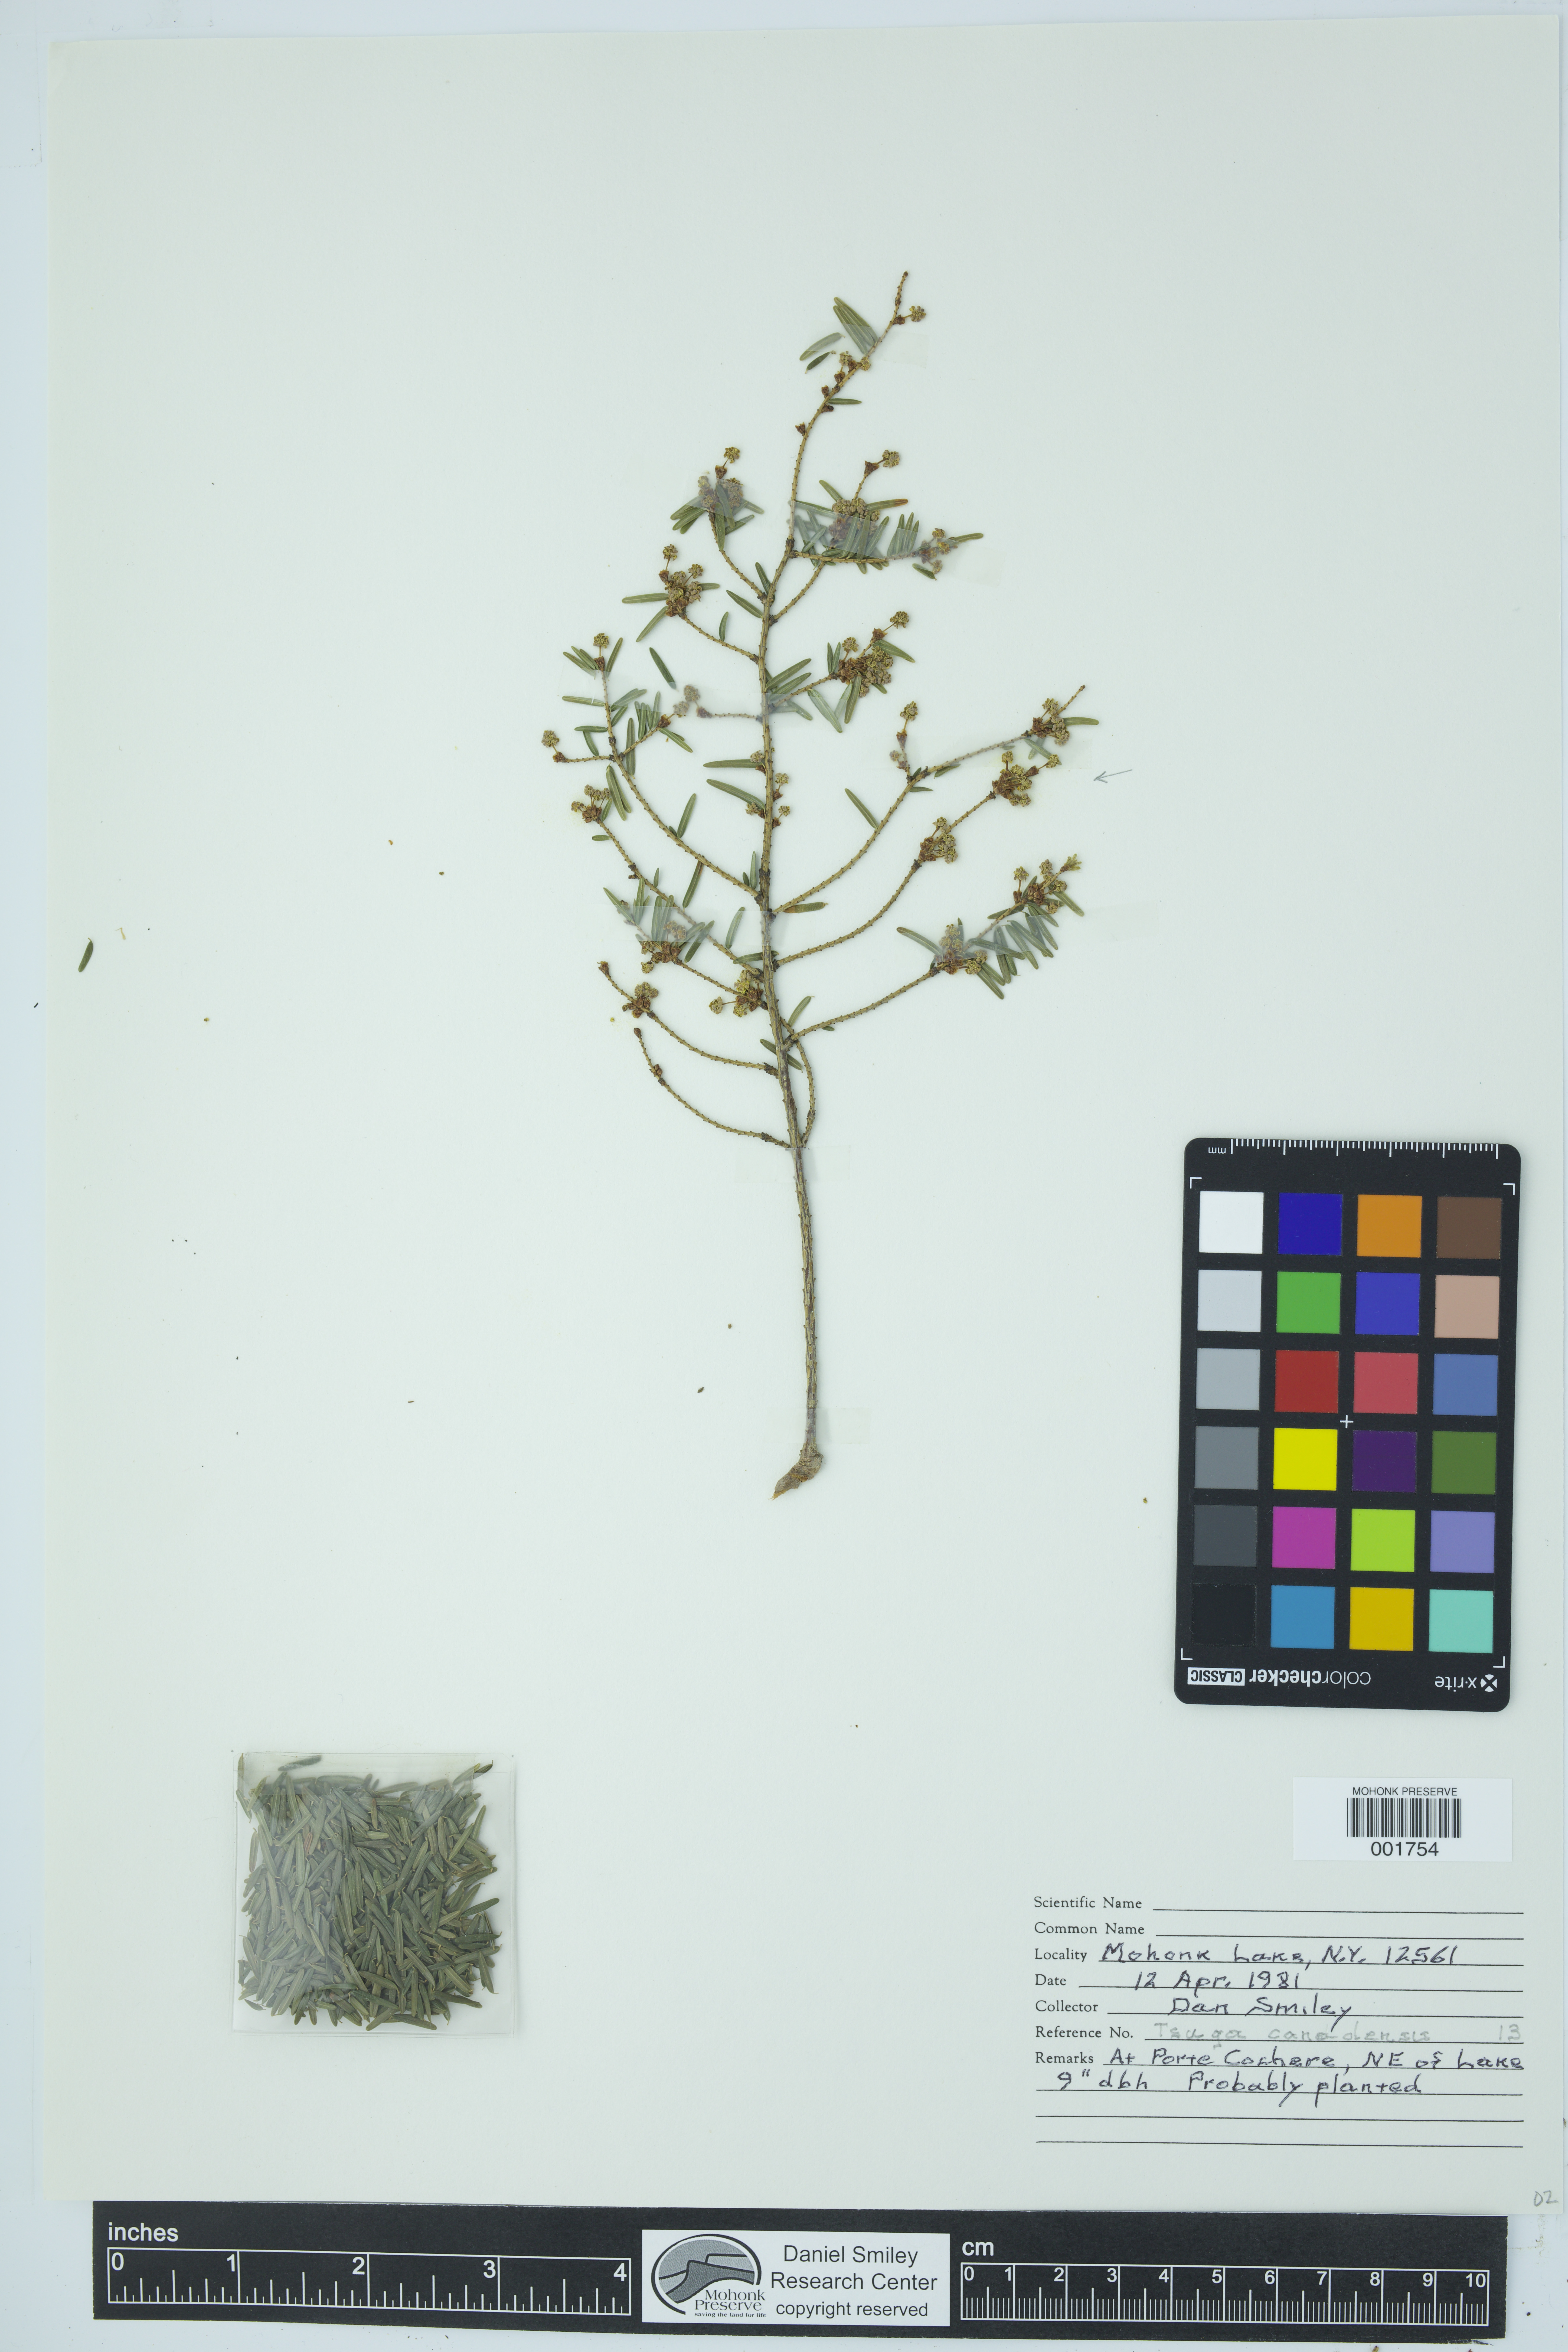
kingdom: Plantae
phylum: Tracheophyta
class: Pinopsida
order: Pinales
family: Pinaceae
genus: Tsuga
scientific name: Tsuga canadensis
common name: Eastern hemlock
